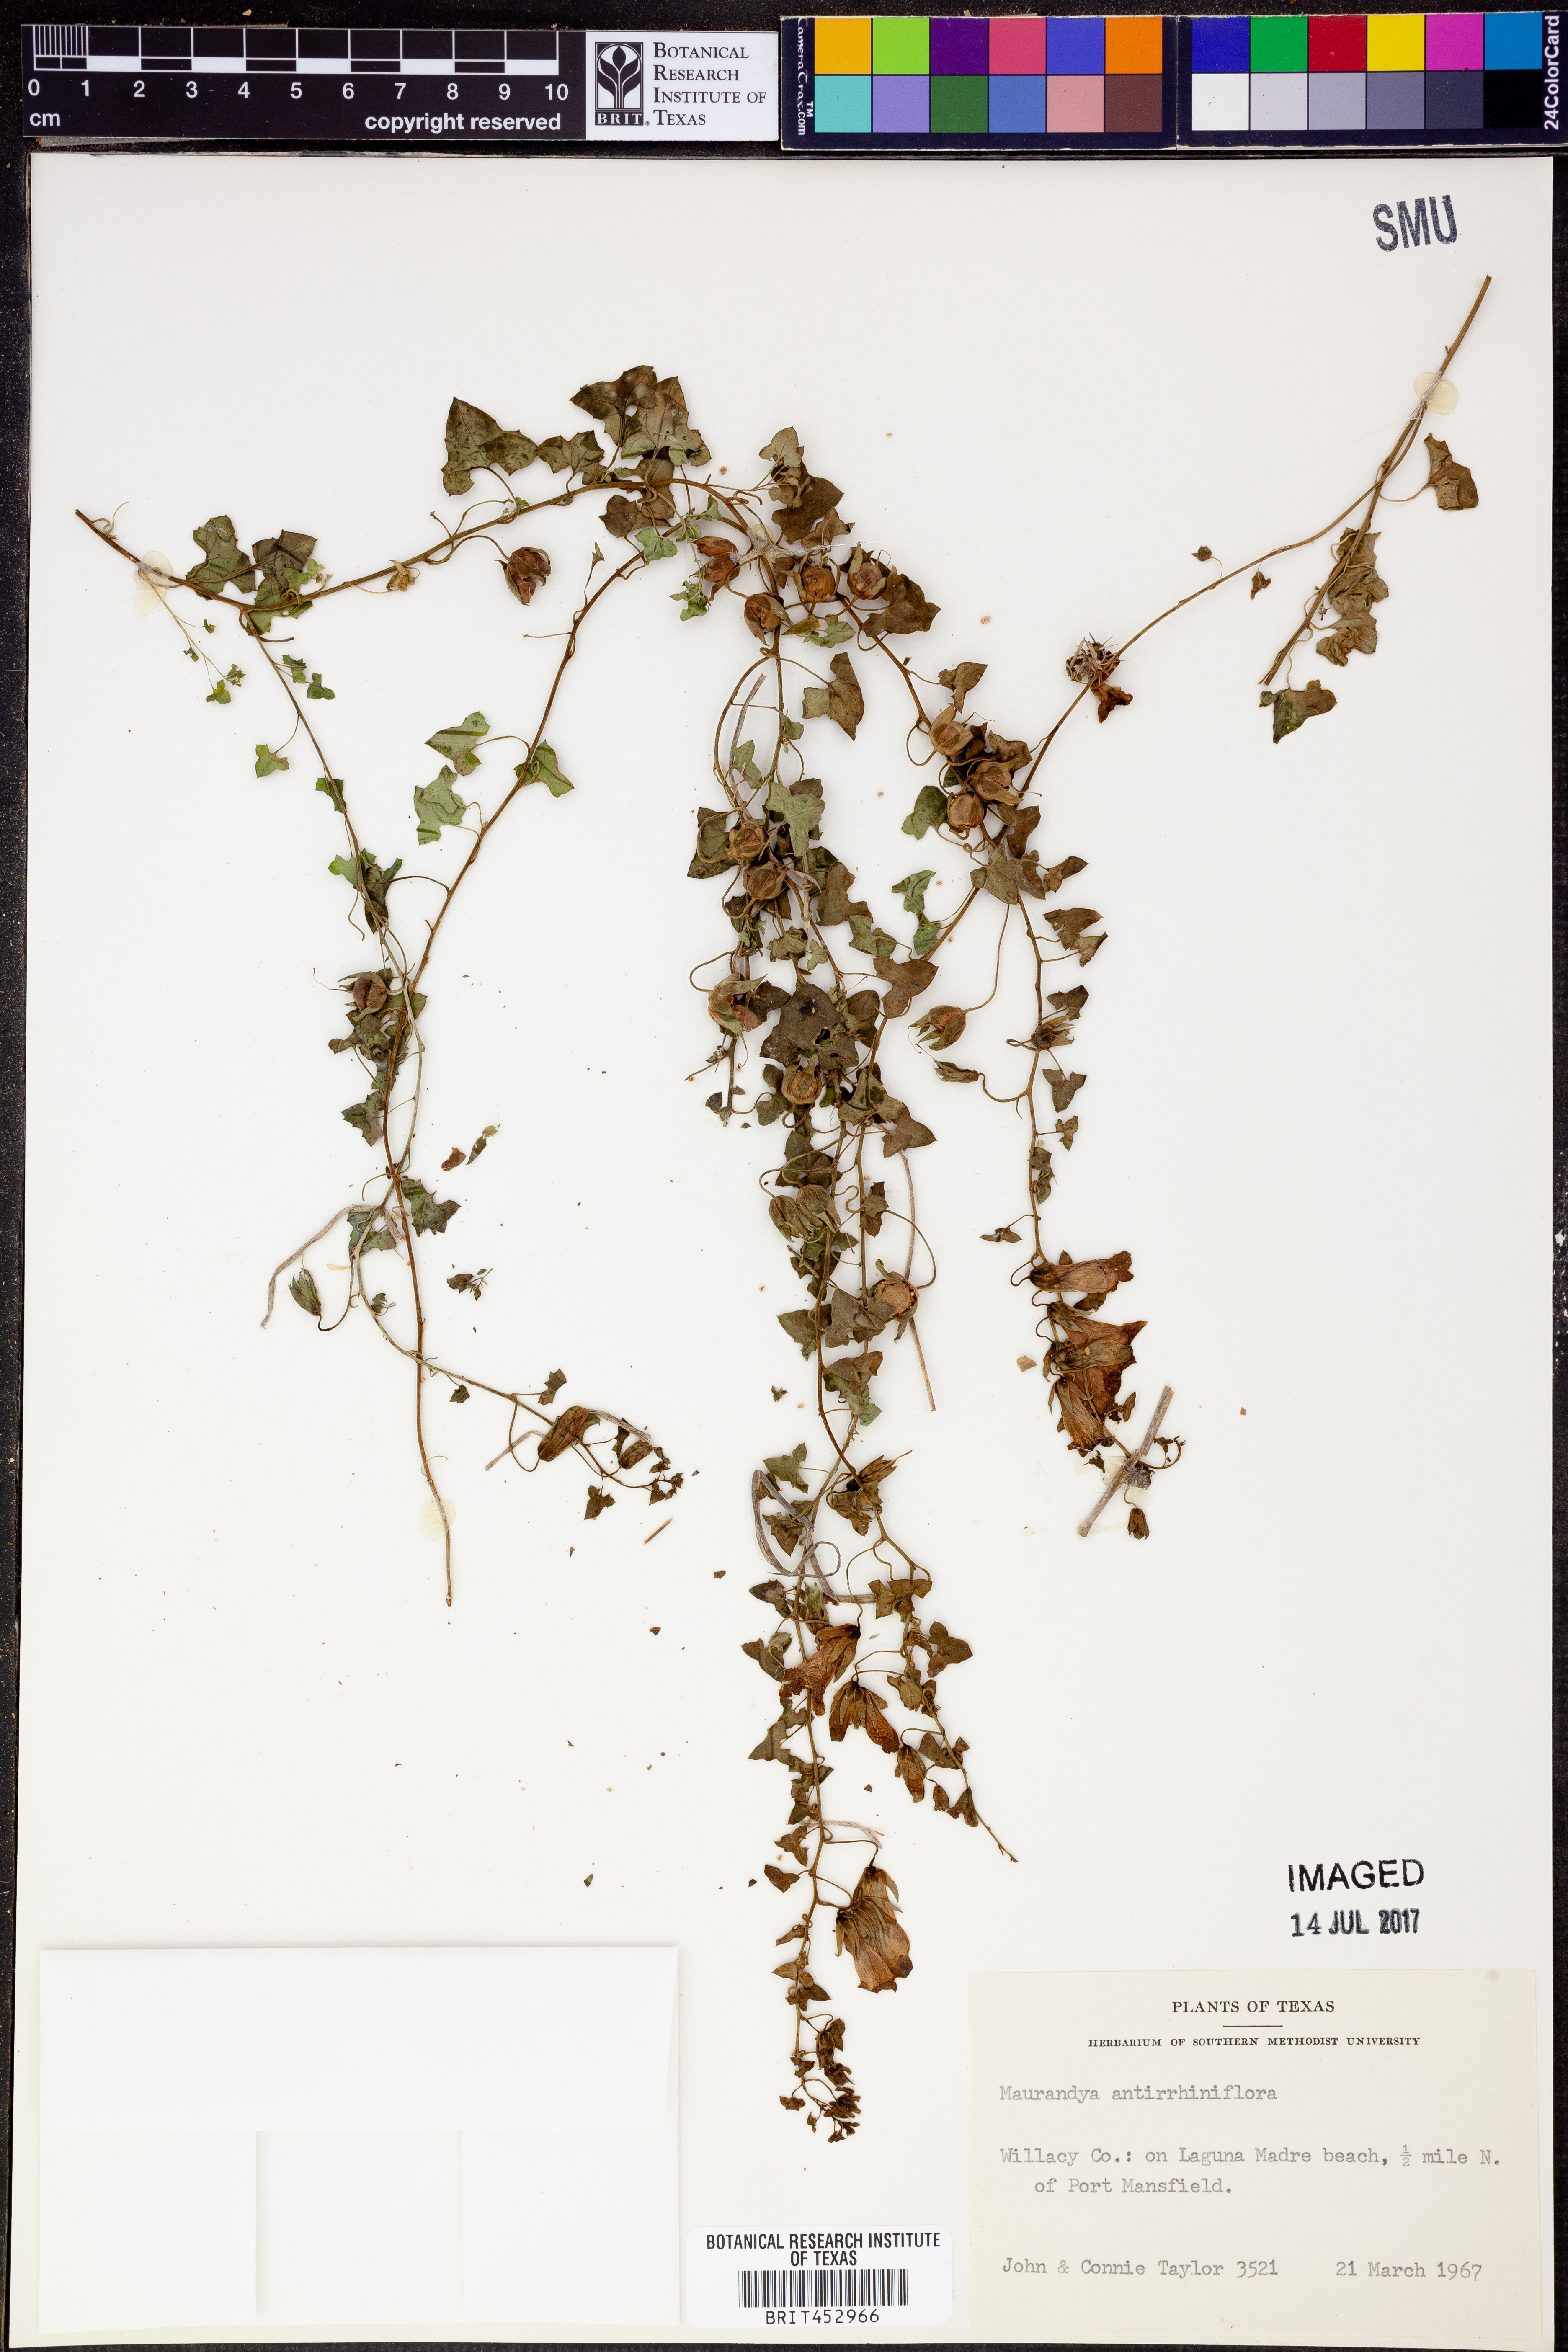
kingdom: Plantae
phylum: Tracheophyta
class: Magnoliopsida
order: Lamiales
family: Plantaginaceae
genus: Maurandella
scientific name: Maurandella antirrhiniflora
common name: Violet twining-snapdragon
